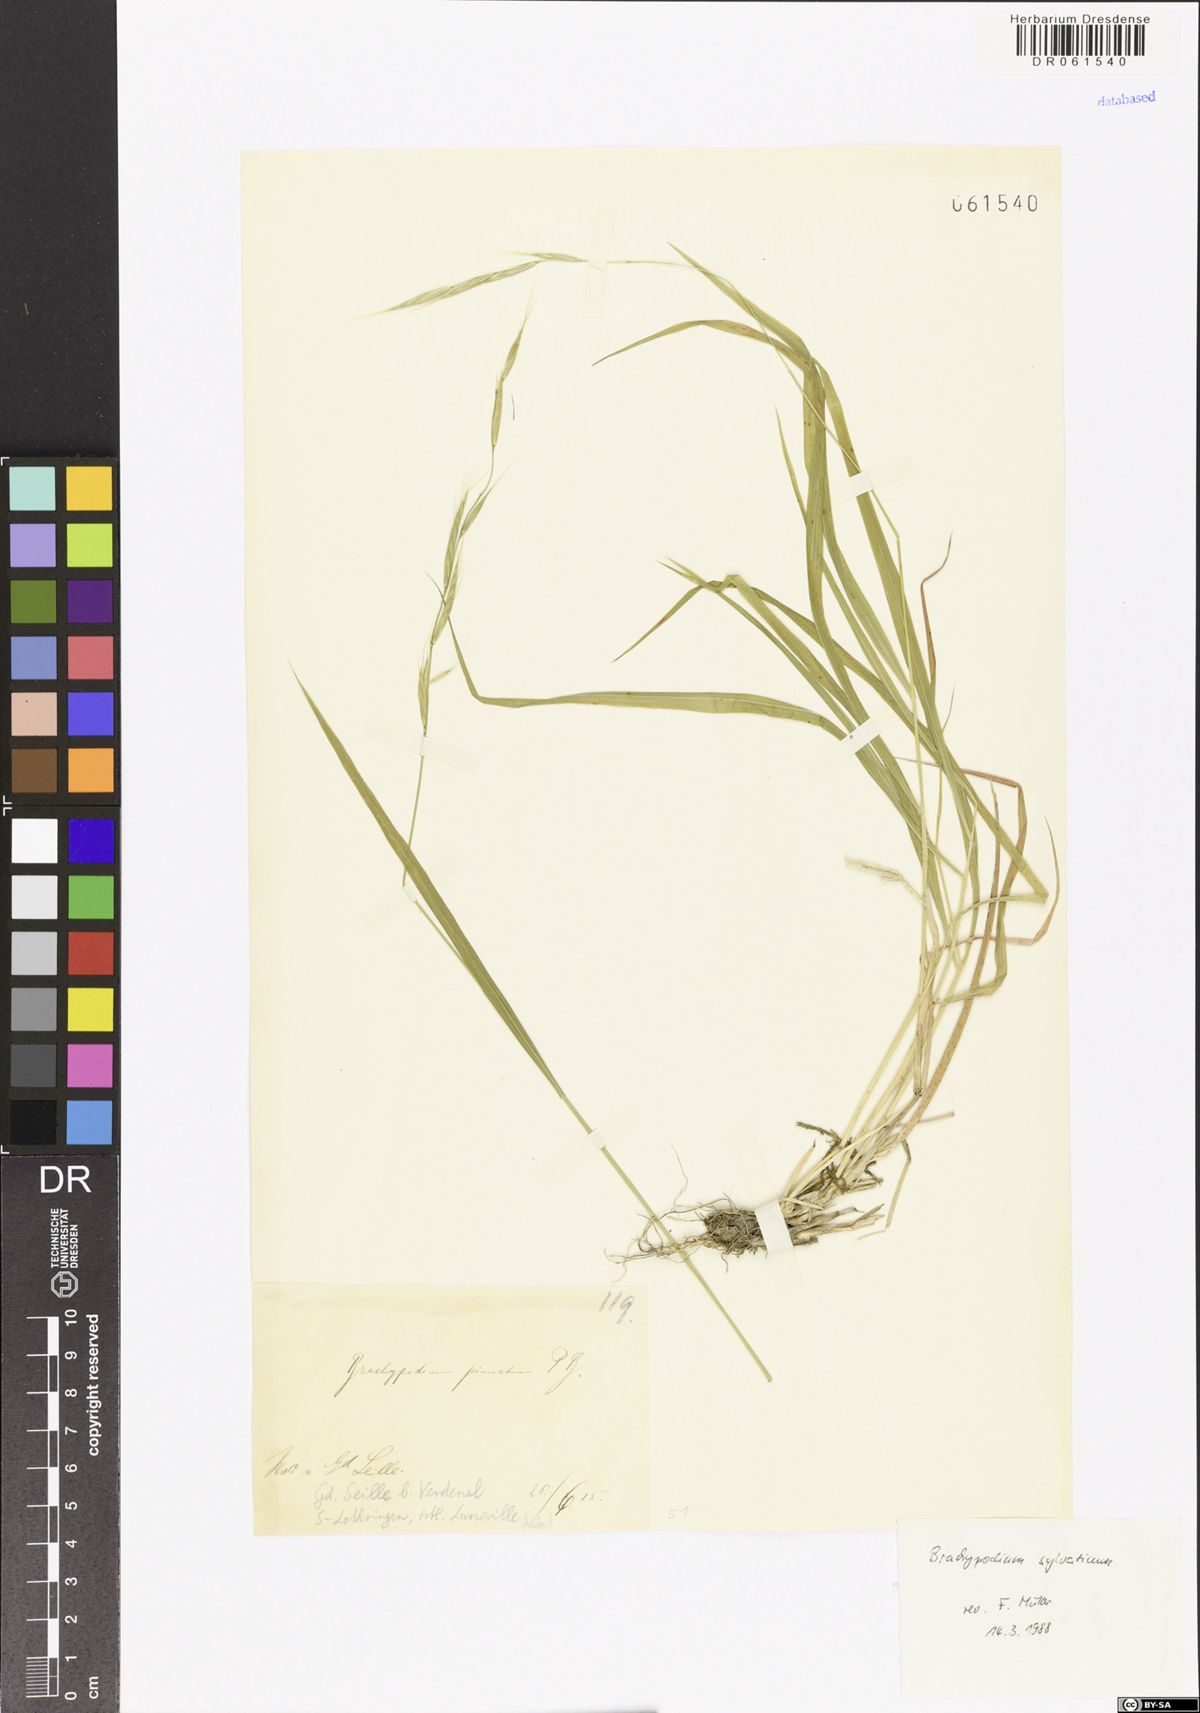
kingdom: Plantae
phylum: Tracheophyta
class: Liliopsida
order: Poales
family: Poaceae
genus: Brachypodium
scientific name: Brachypodium sylvaticum
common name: False-brome
